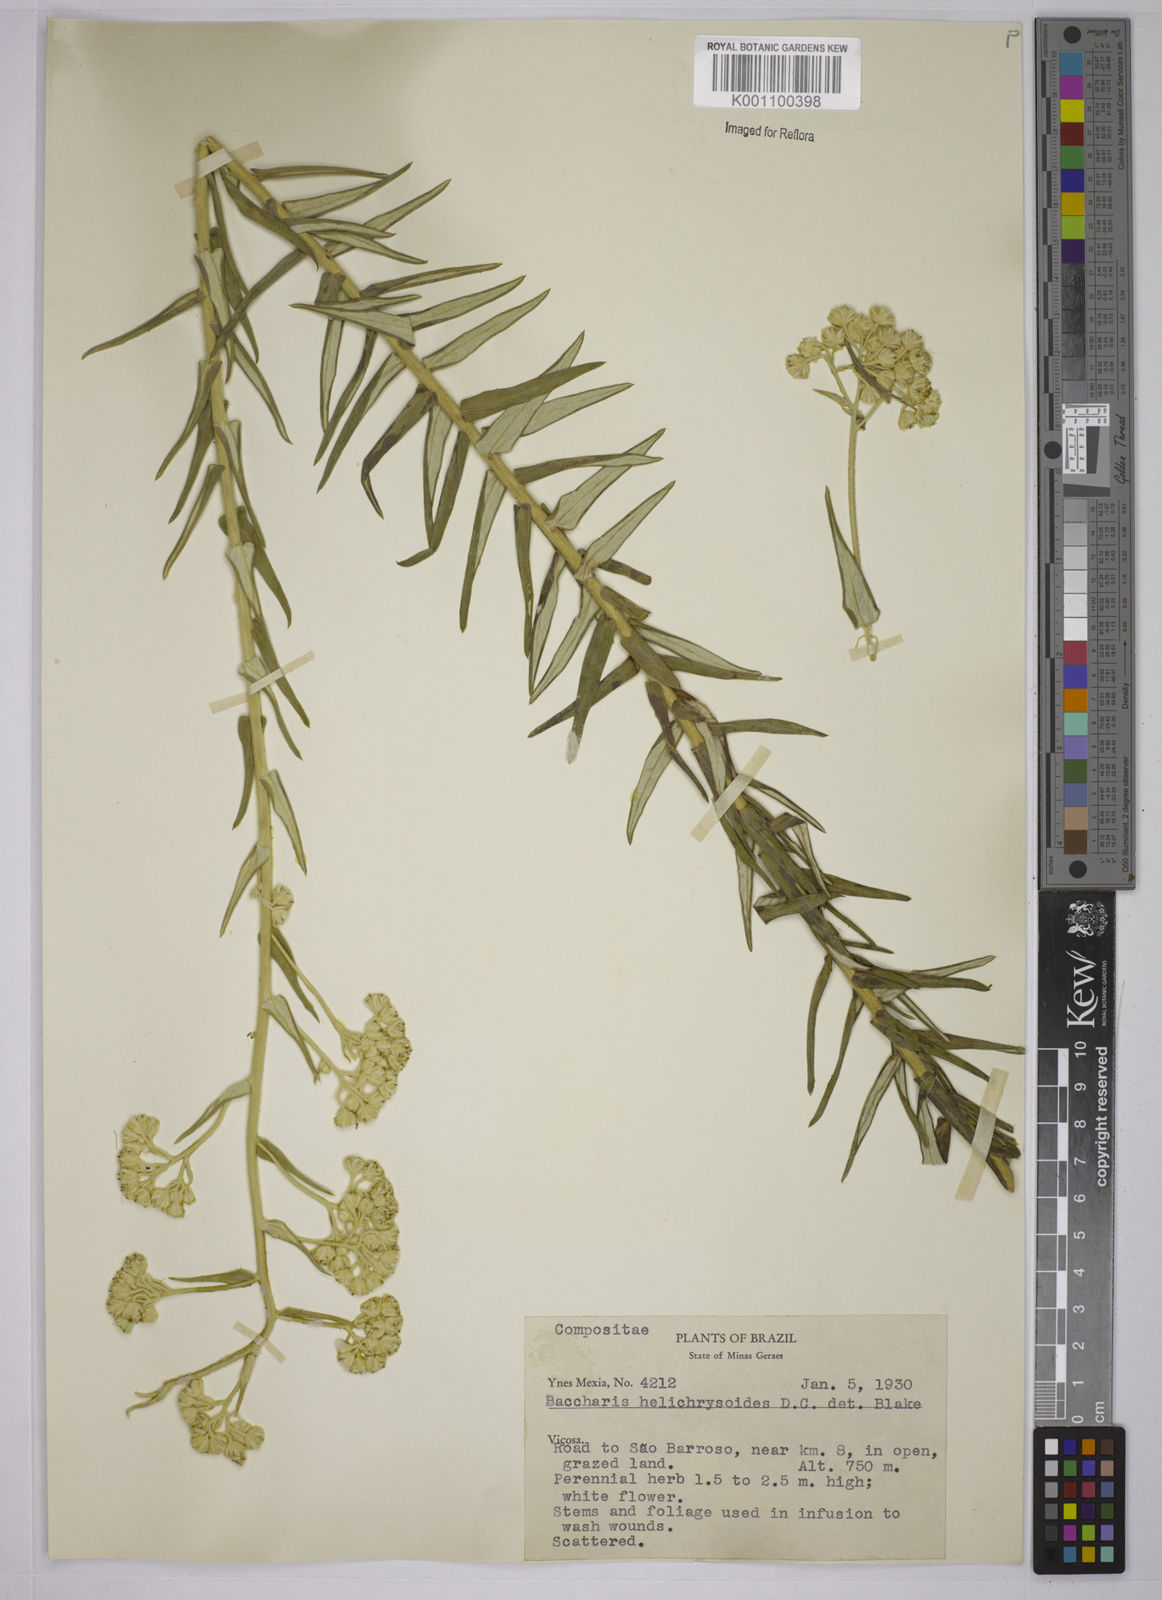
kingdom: Plantae
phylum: Tracheophyta
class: Magnoliopsida
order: Asterales
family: Asteraceae
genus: Baccharis
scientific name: Baccharis helichrysoides
